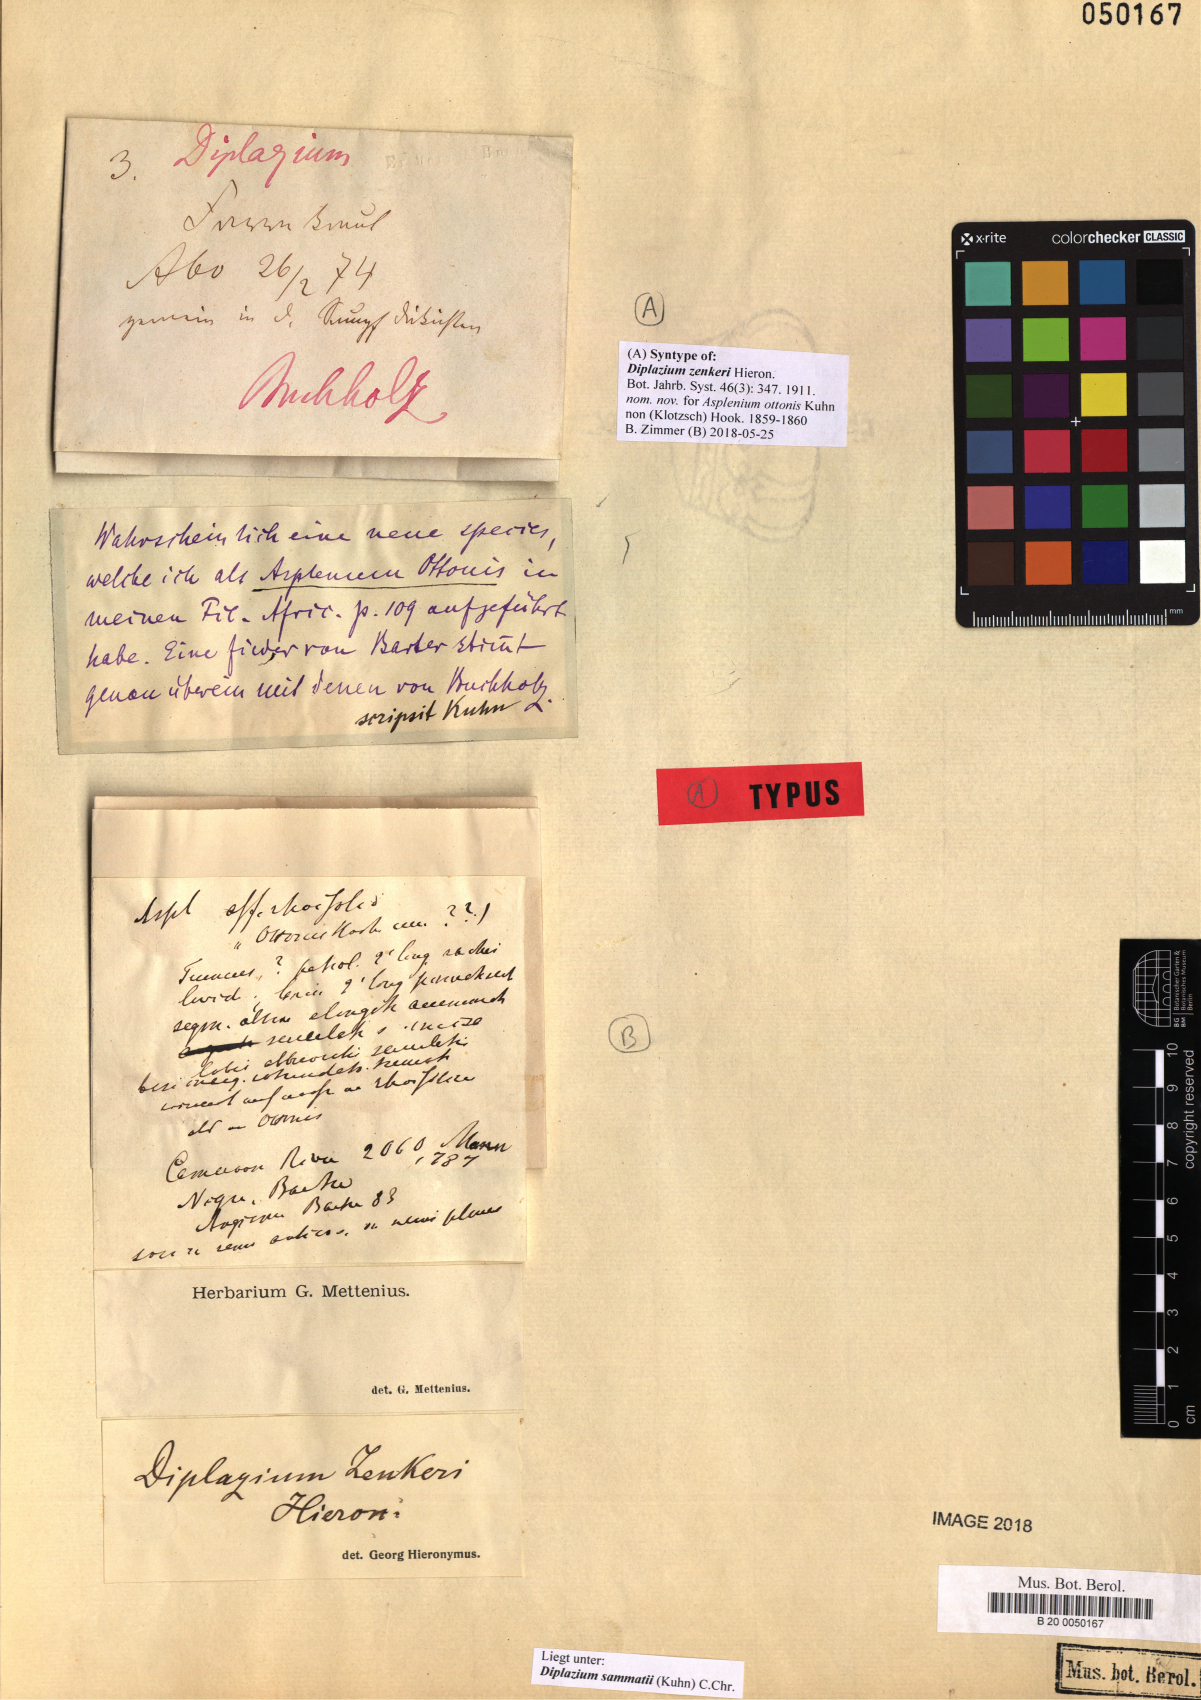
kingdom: Plantae
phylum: Tracheophyta
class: Polypodiopsida
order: Polypodiales
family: Athyriaceae
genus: Diplazium
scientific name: Diplazium sammatii
